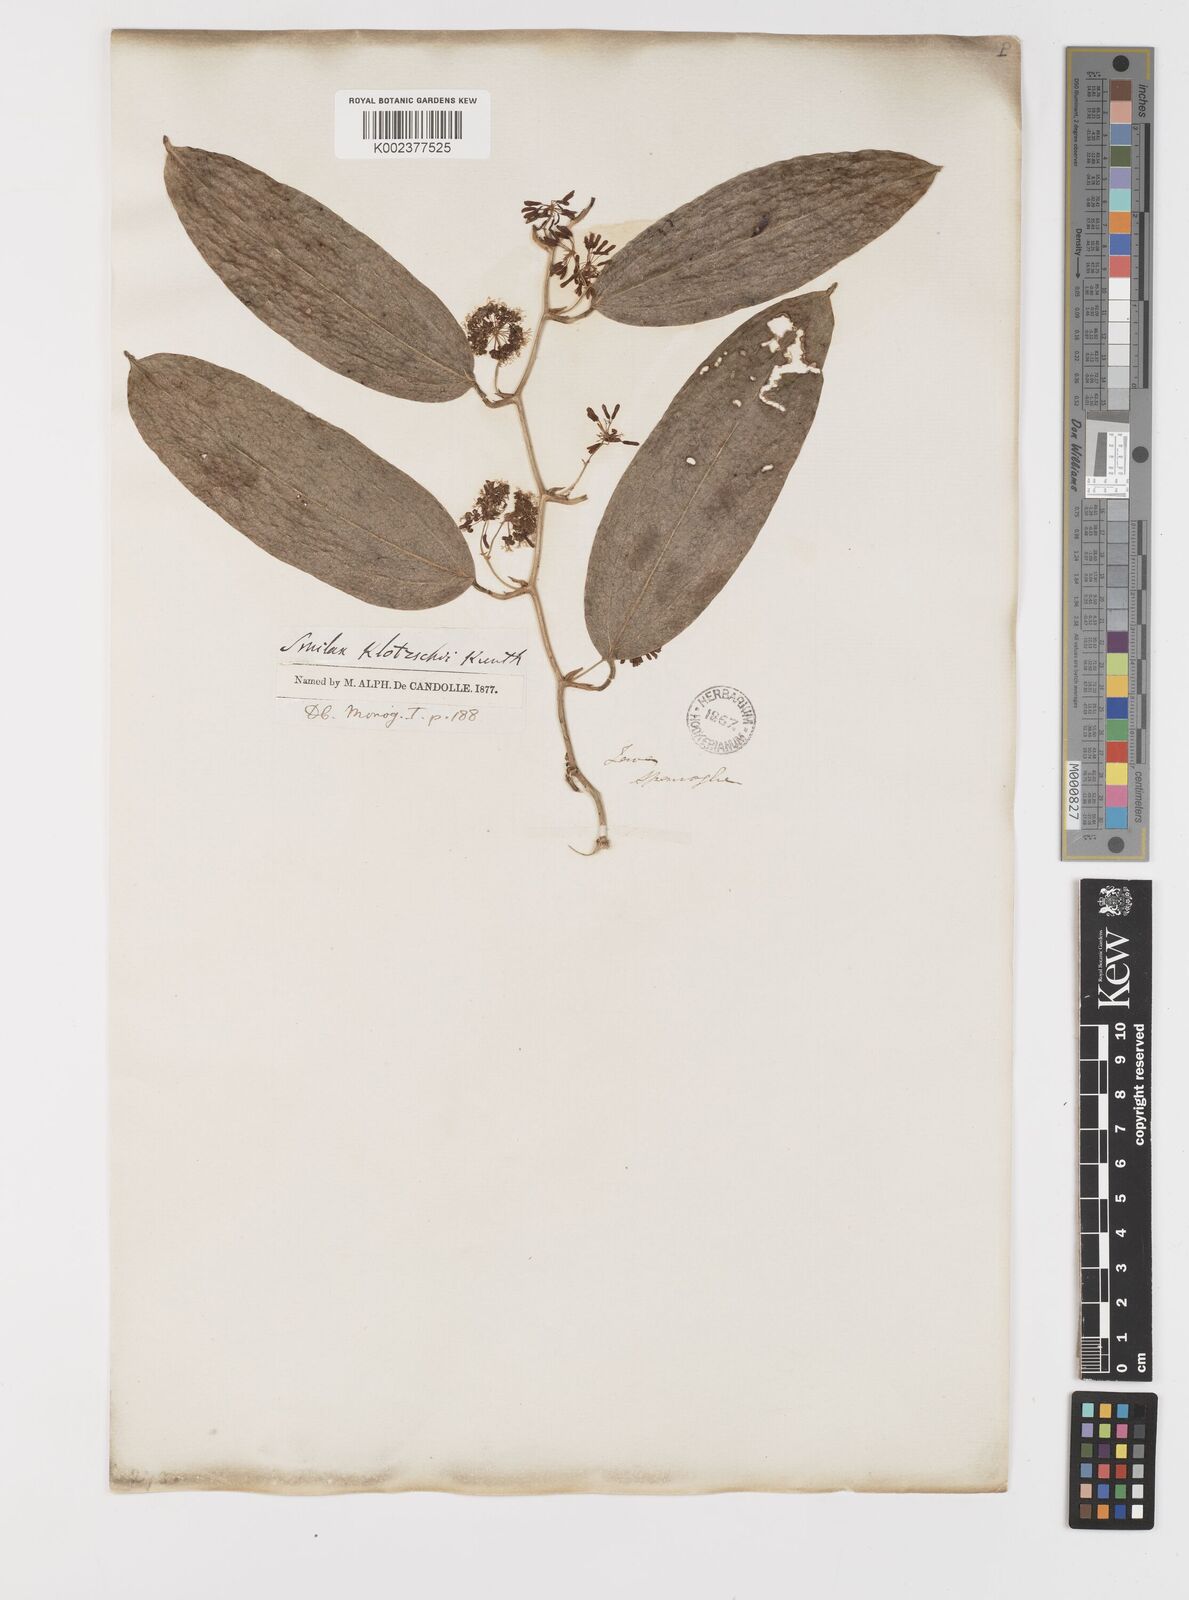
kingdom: Plantae
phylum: Tracheophyta
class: Liliopsida
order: Liliales
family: Smilacaceae
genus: Smilax
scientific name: Smilax klotzschii
